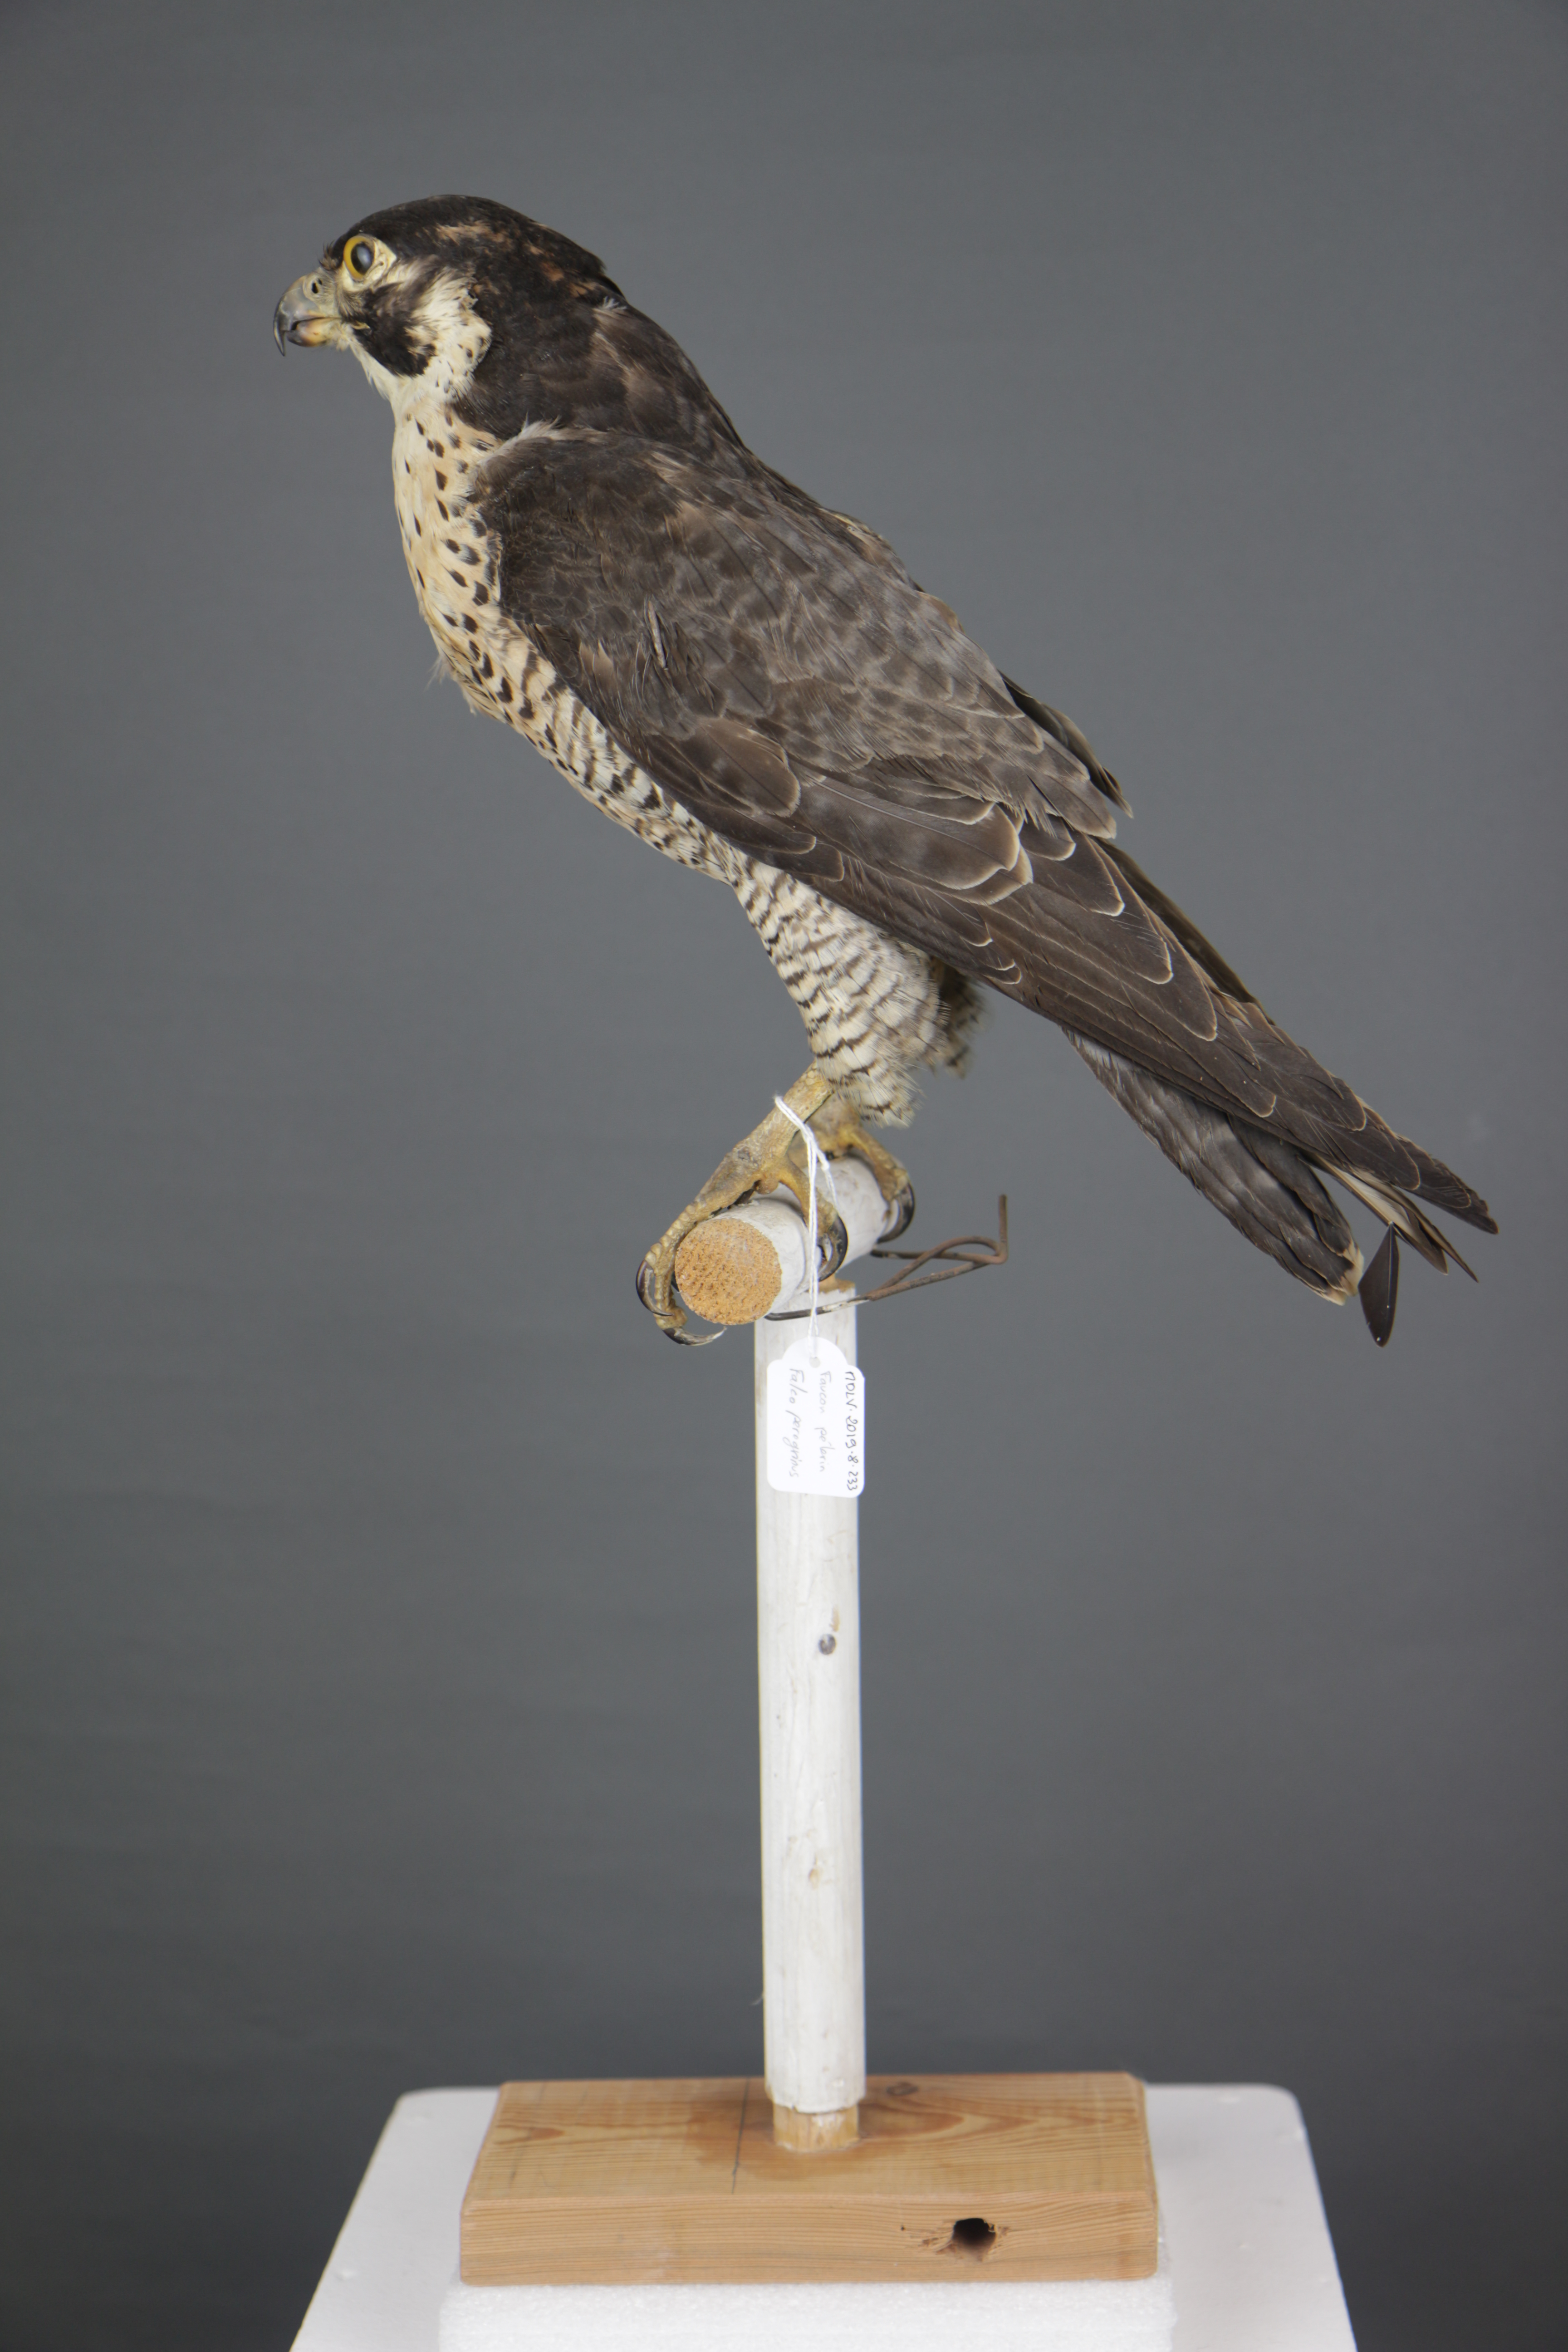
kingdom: Animalia
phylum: Chordata
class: Aves
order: Falconiformes
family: Falconidae
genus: Falco
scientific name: Falco peregrinus
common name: Peregrine falcon
